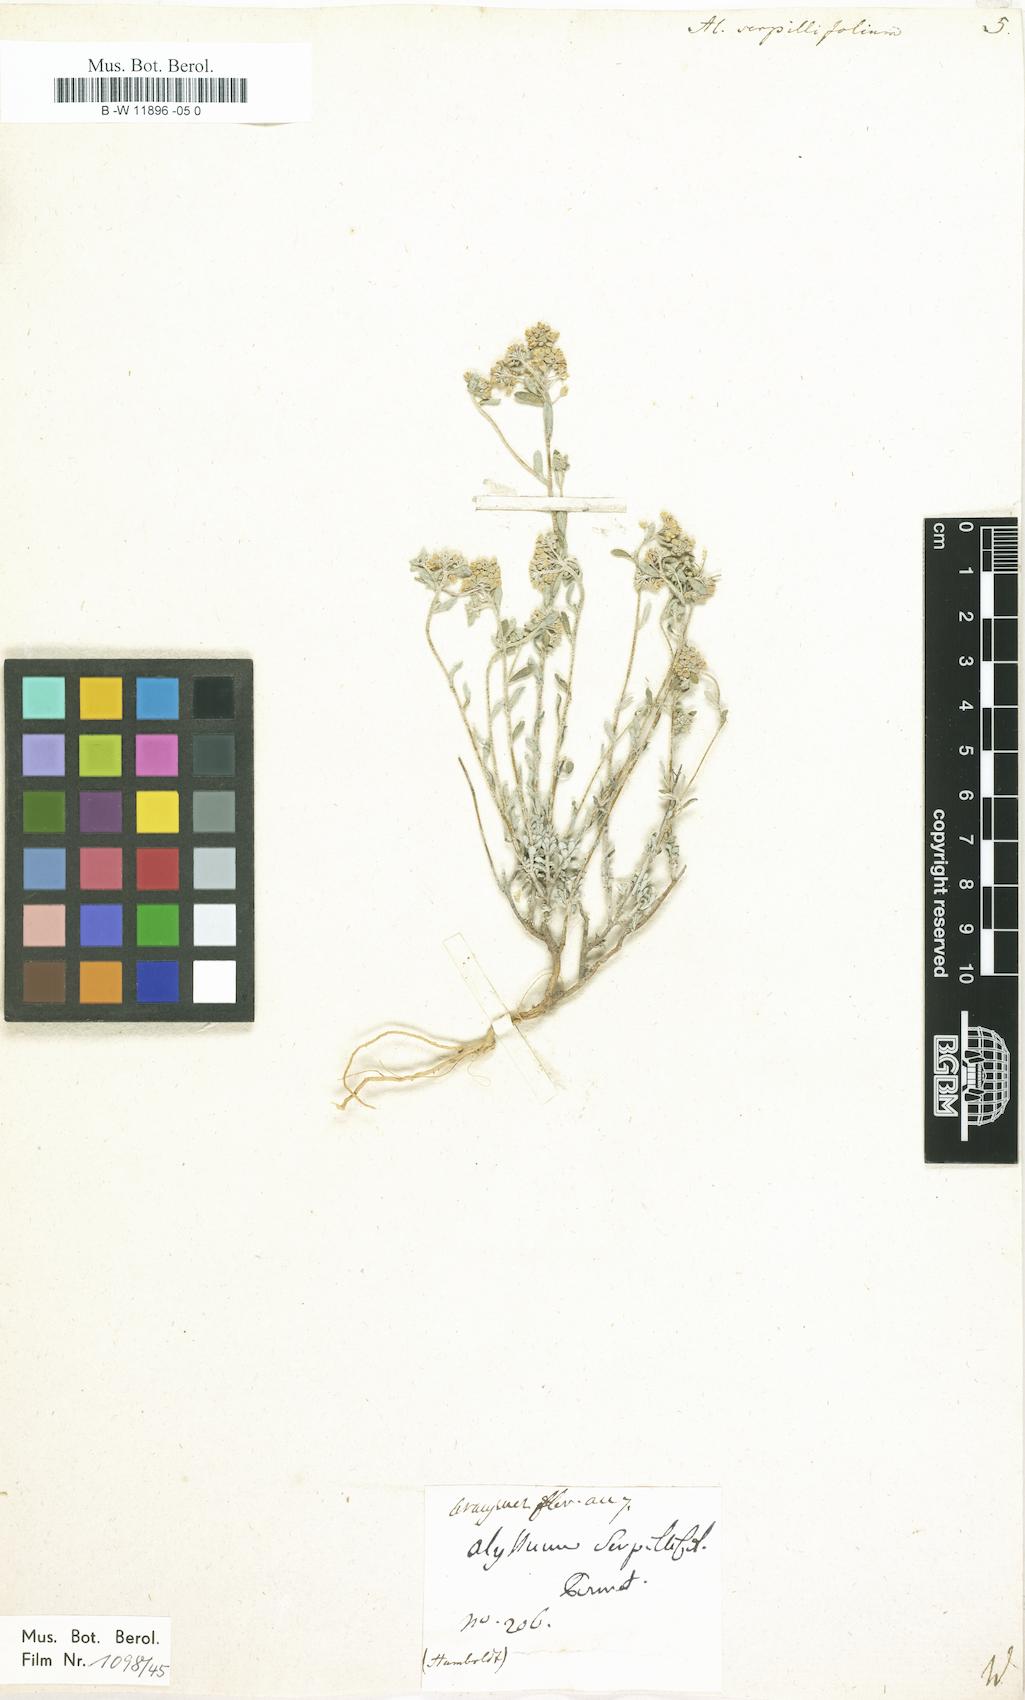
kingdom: Plantae
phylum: Tracheophyta
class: Magnoliopsida
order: Brassicales
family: Brassicaceae
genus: Odontarrhena
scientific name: Odontarrhena serpyllifolia
